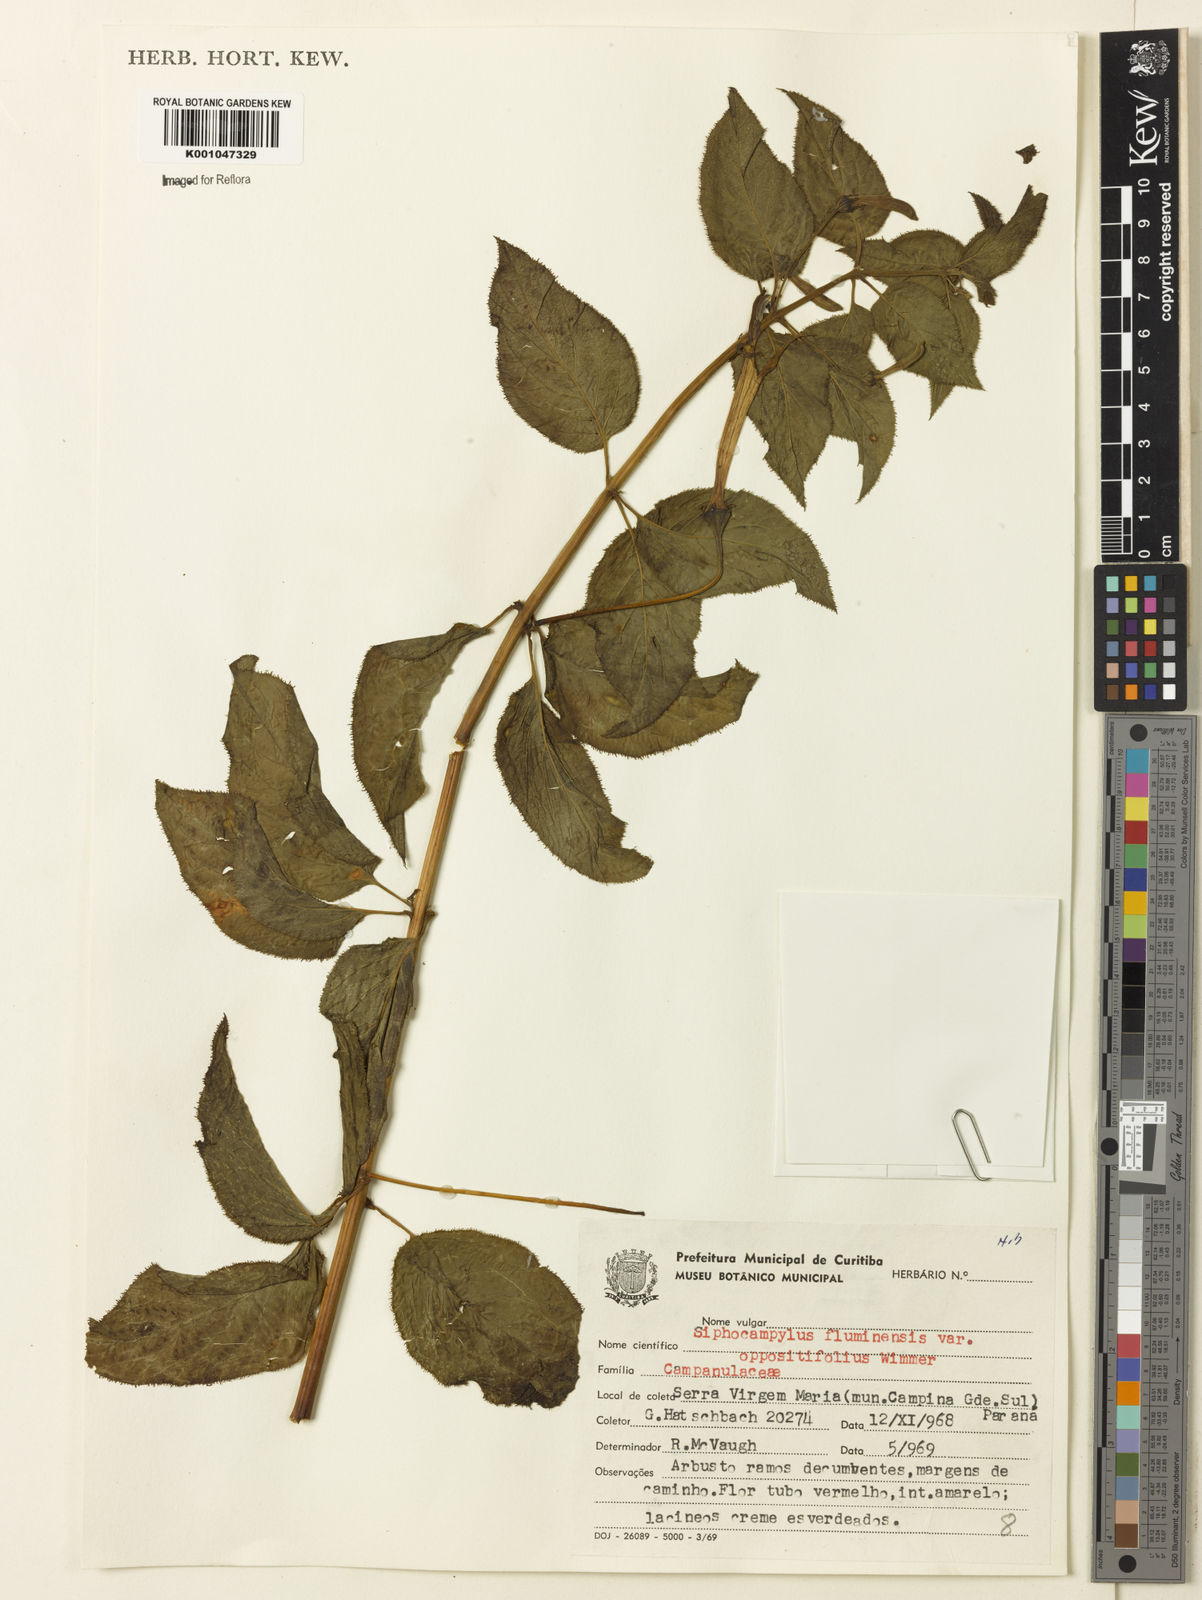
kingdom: Plantae
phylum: Tracheophyta
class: Magnoliopsida
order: Asterales
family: Campanulaceae
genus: Siphocampylus
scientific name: Siphocampylus fluminensis
